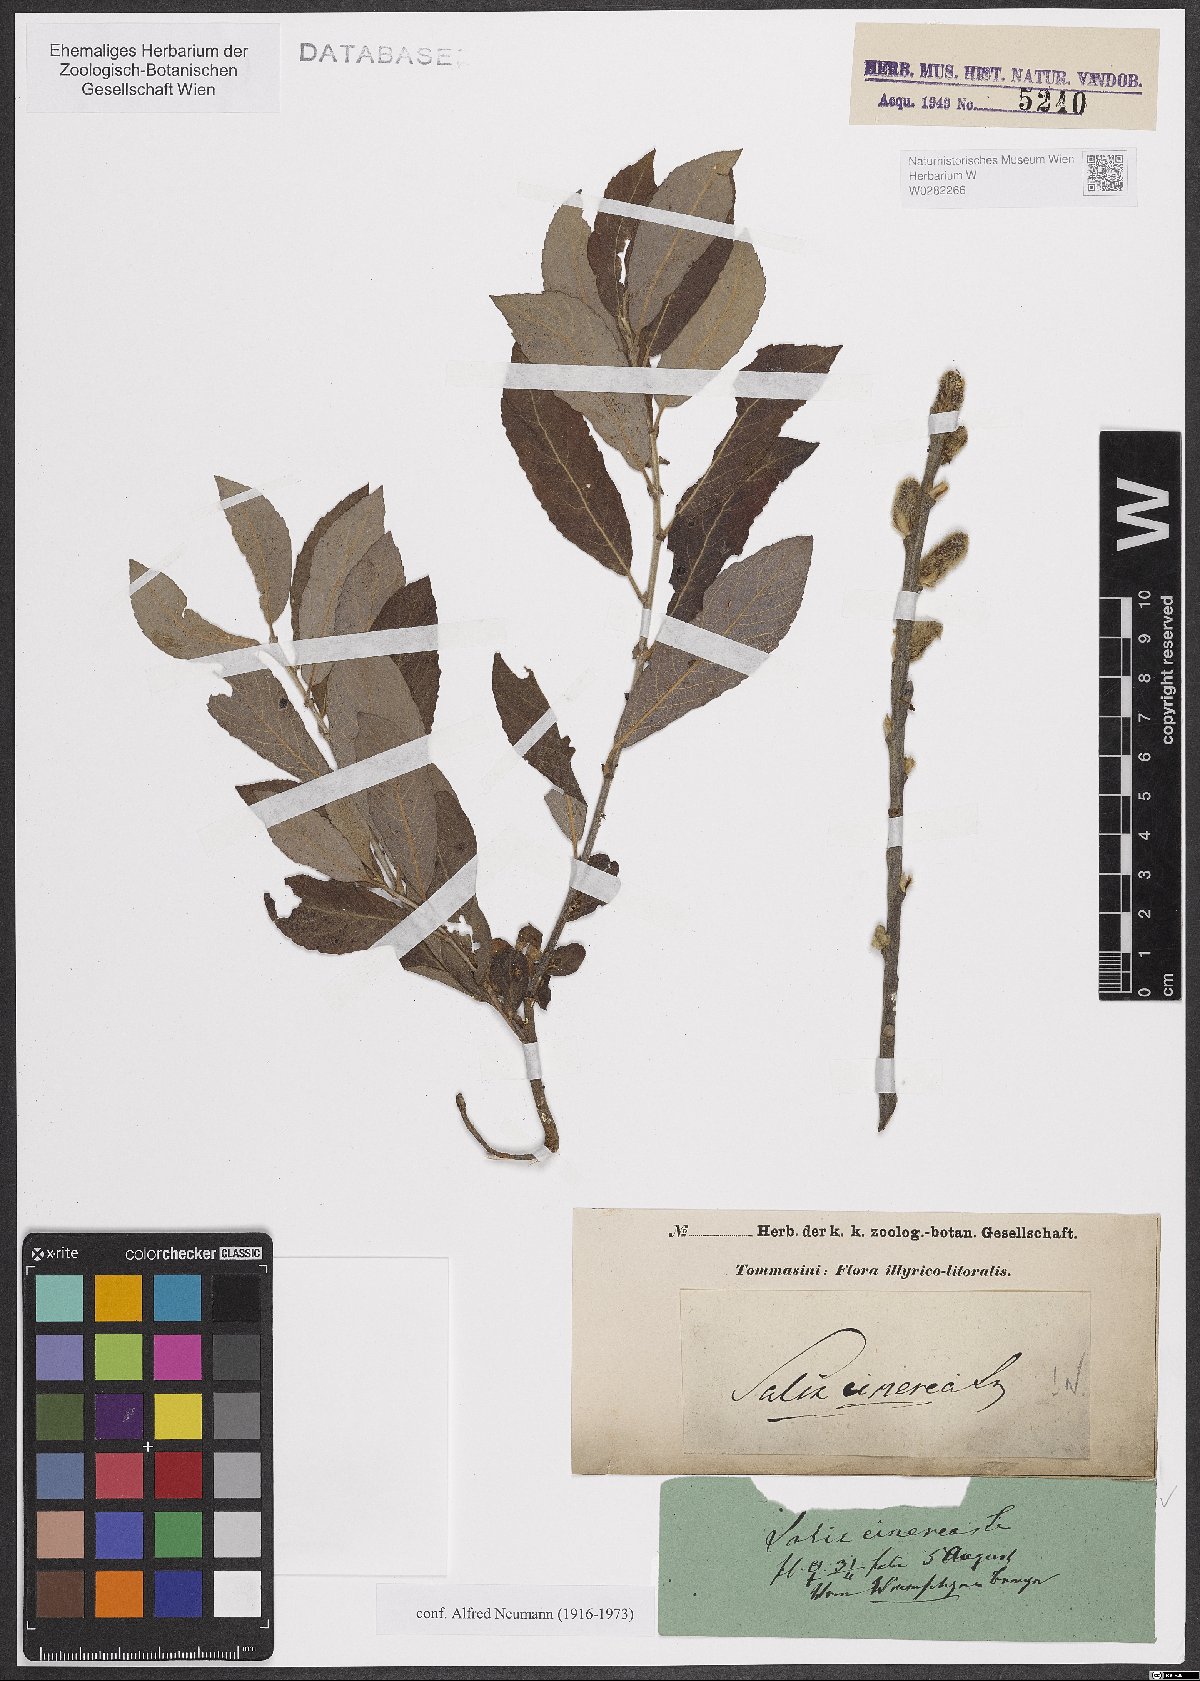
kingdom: Plantae
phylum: Tracheophyta
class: Magnoliopsida
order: Malpighiales
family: Salicaceae
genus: Salix
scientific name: Salix cinerea
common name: Common sallow
